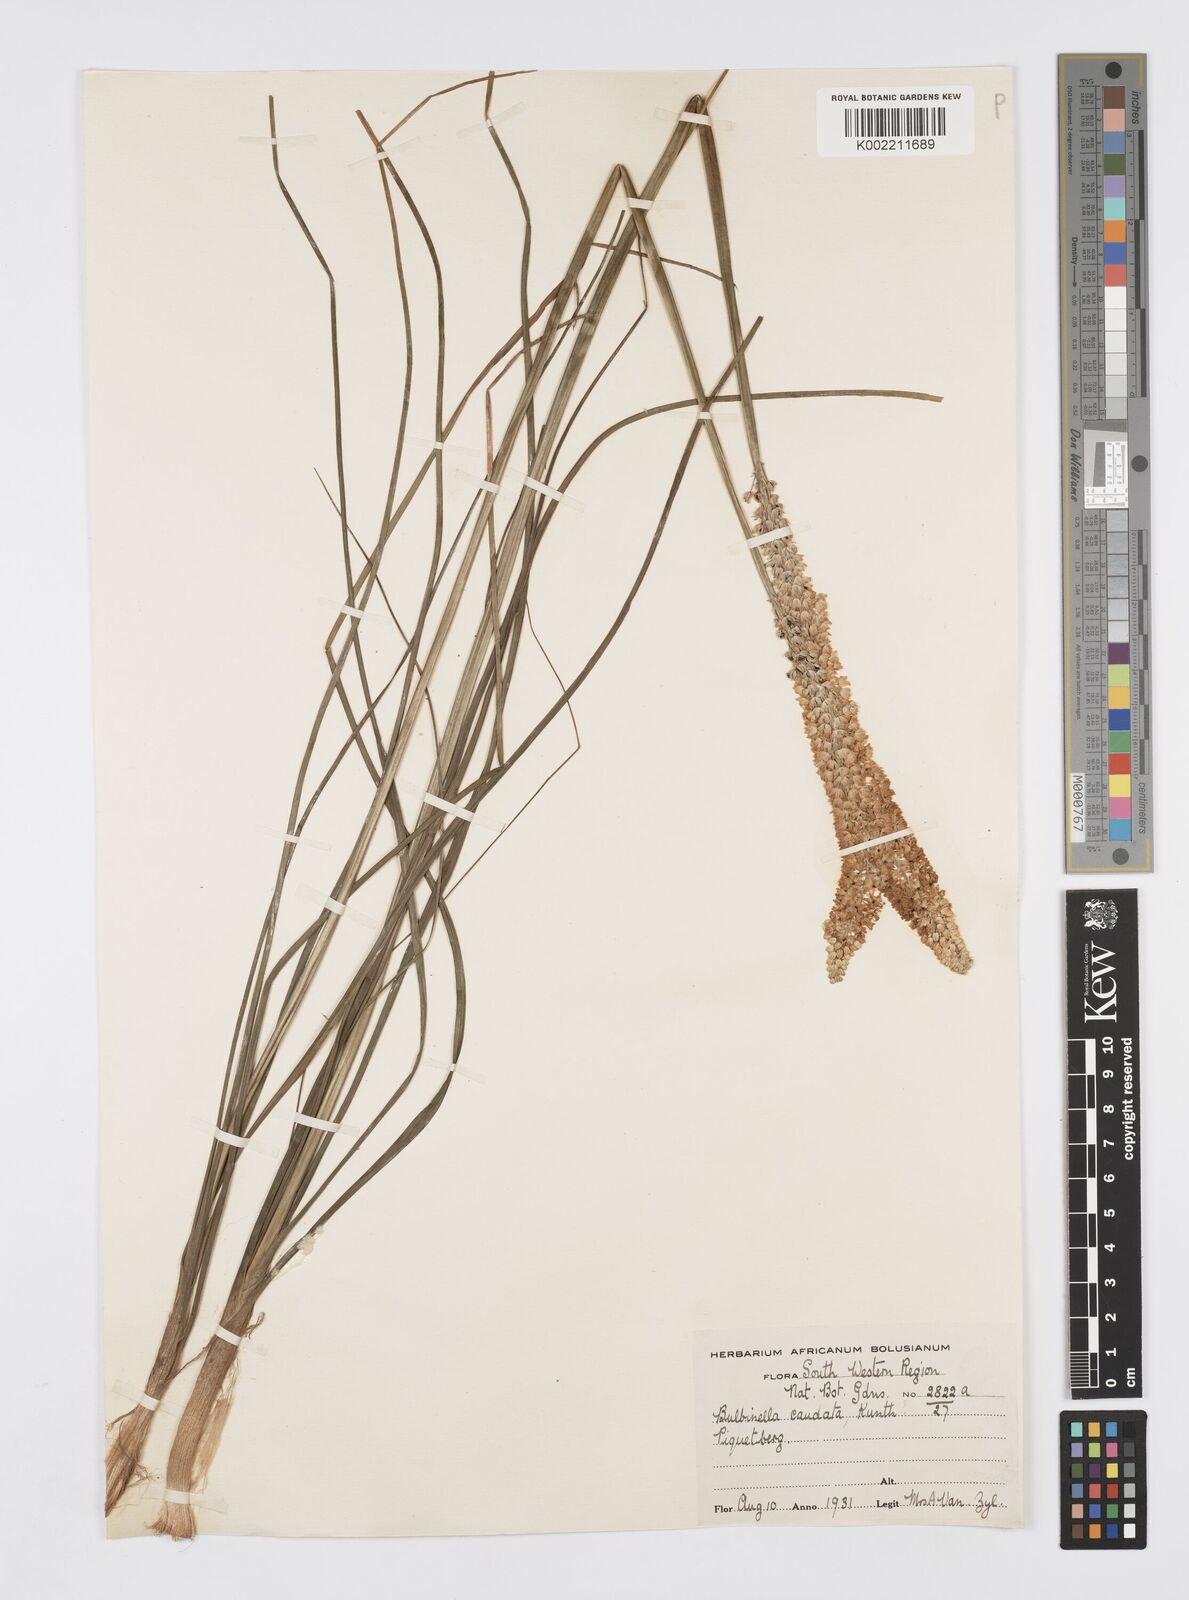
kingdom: Plantae
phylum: Tracheophyta
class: Liliopsida
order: Asparagales
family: Asphodelaceae
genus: Bulbinella
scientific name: Bulbinella cauda-felis
